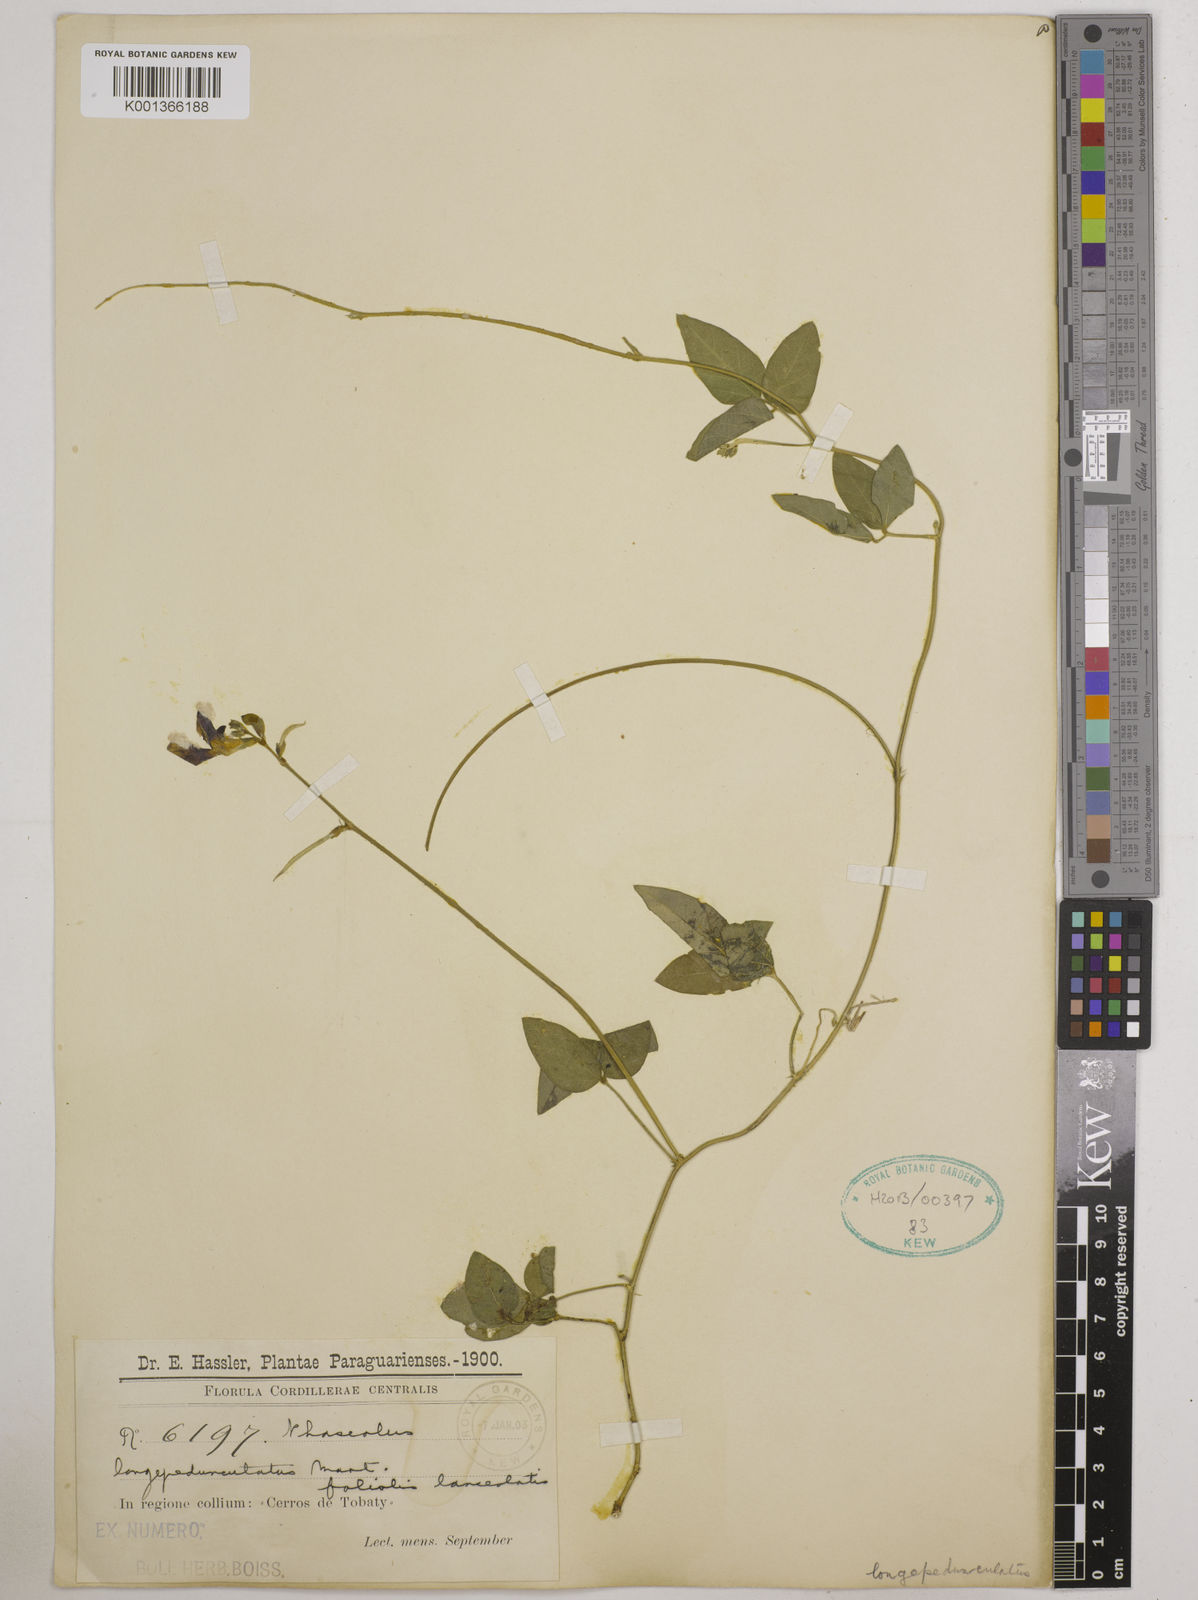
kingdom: Plantae
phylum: Tracheophyta
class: Magnoliopsida
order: Fabales
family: Fabaceae
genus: Macroptilium
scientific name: Macroptilium longepedunculatum
